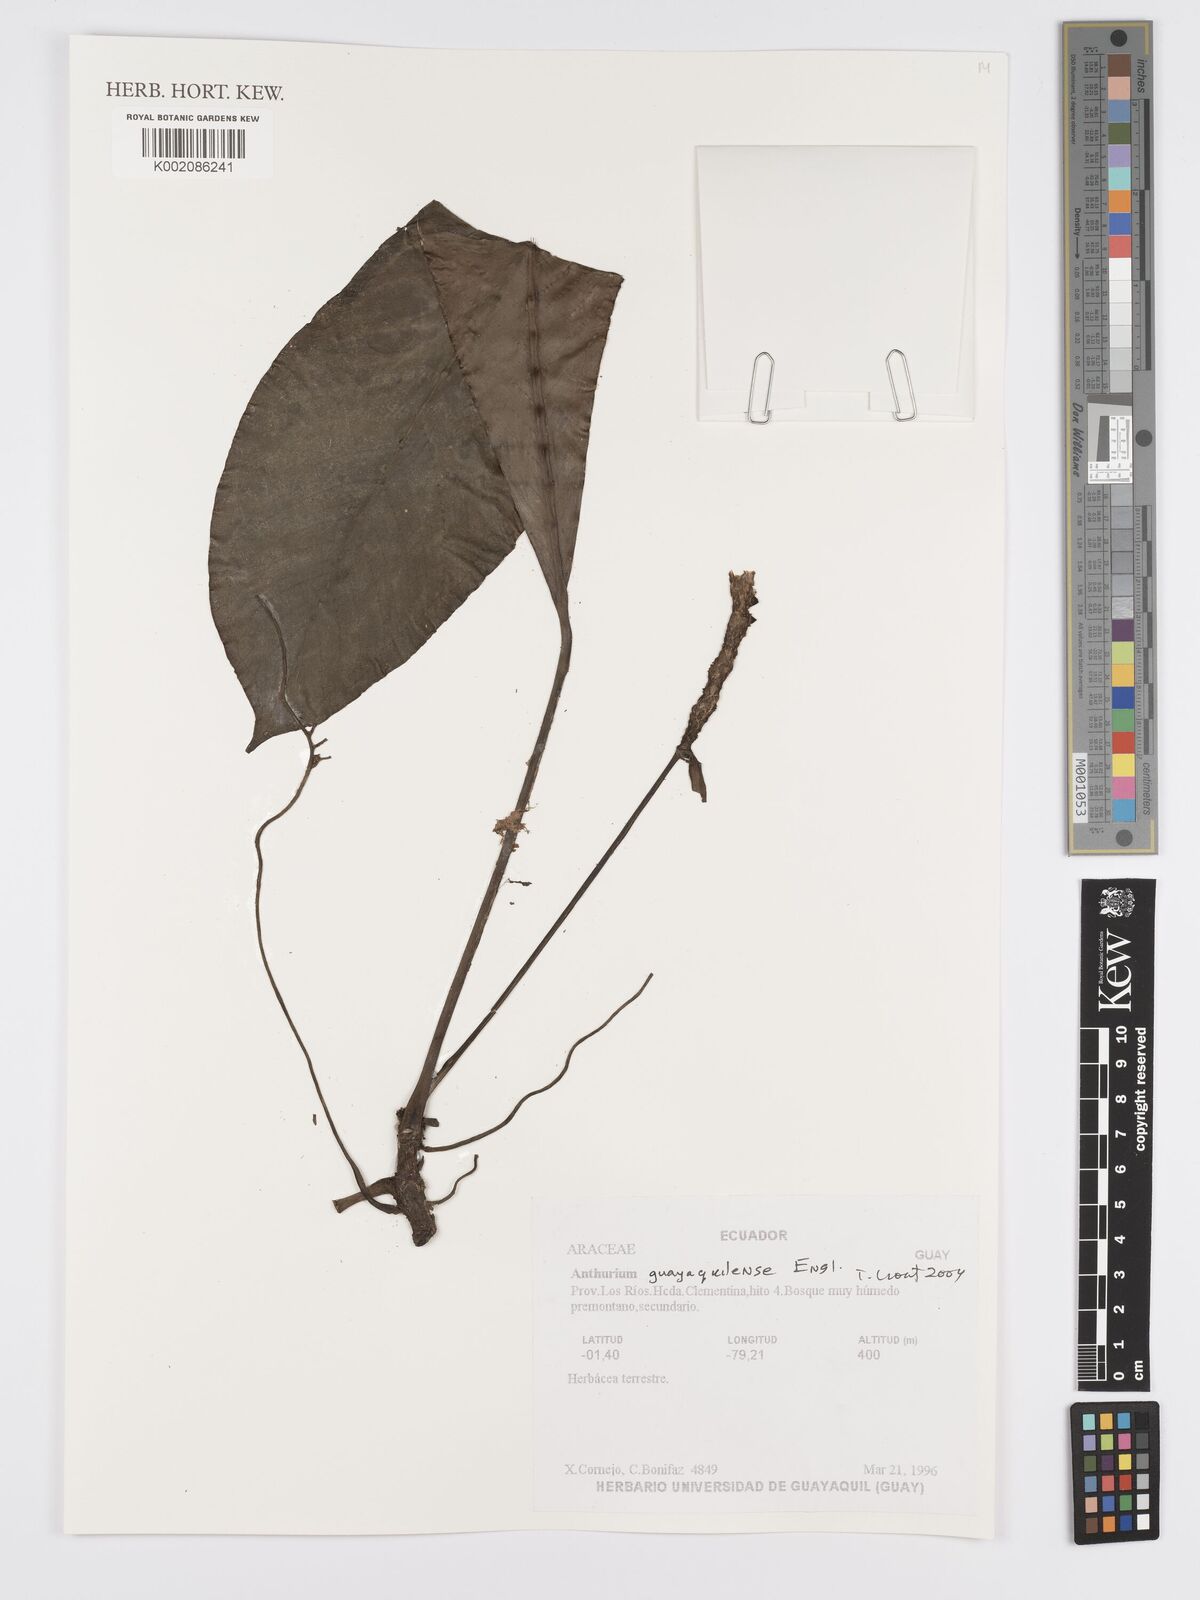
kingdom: Plantae
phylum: Tracheophyta
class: Liliopsida
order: Alismatales
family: Araceae
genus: Anthurium
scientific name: Anthurium guayaquilense
